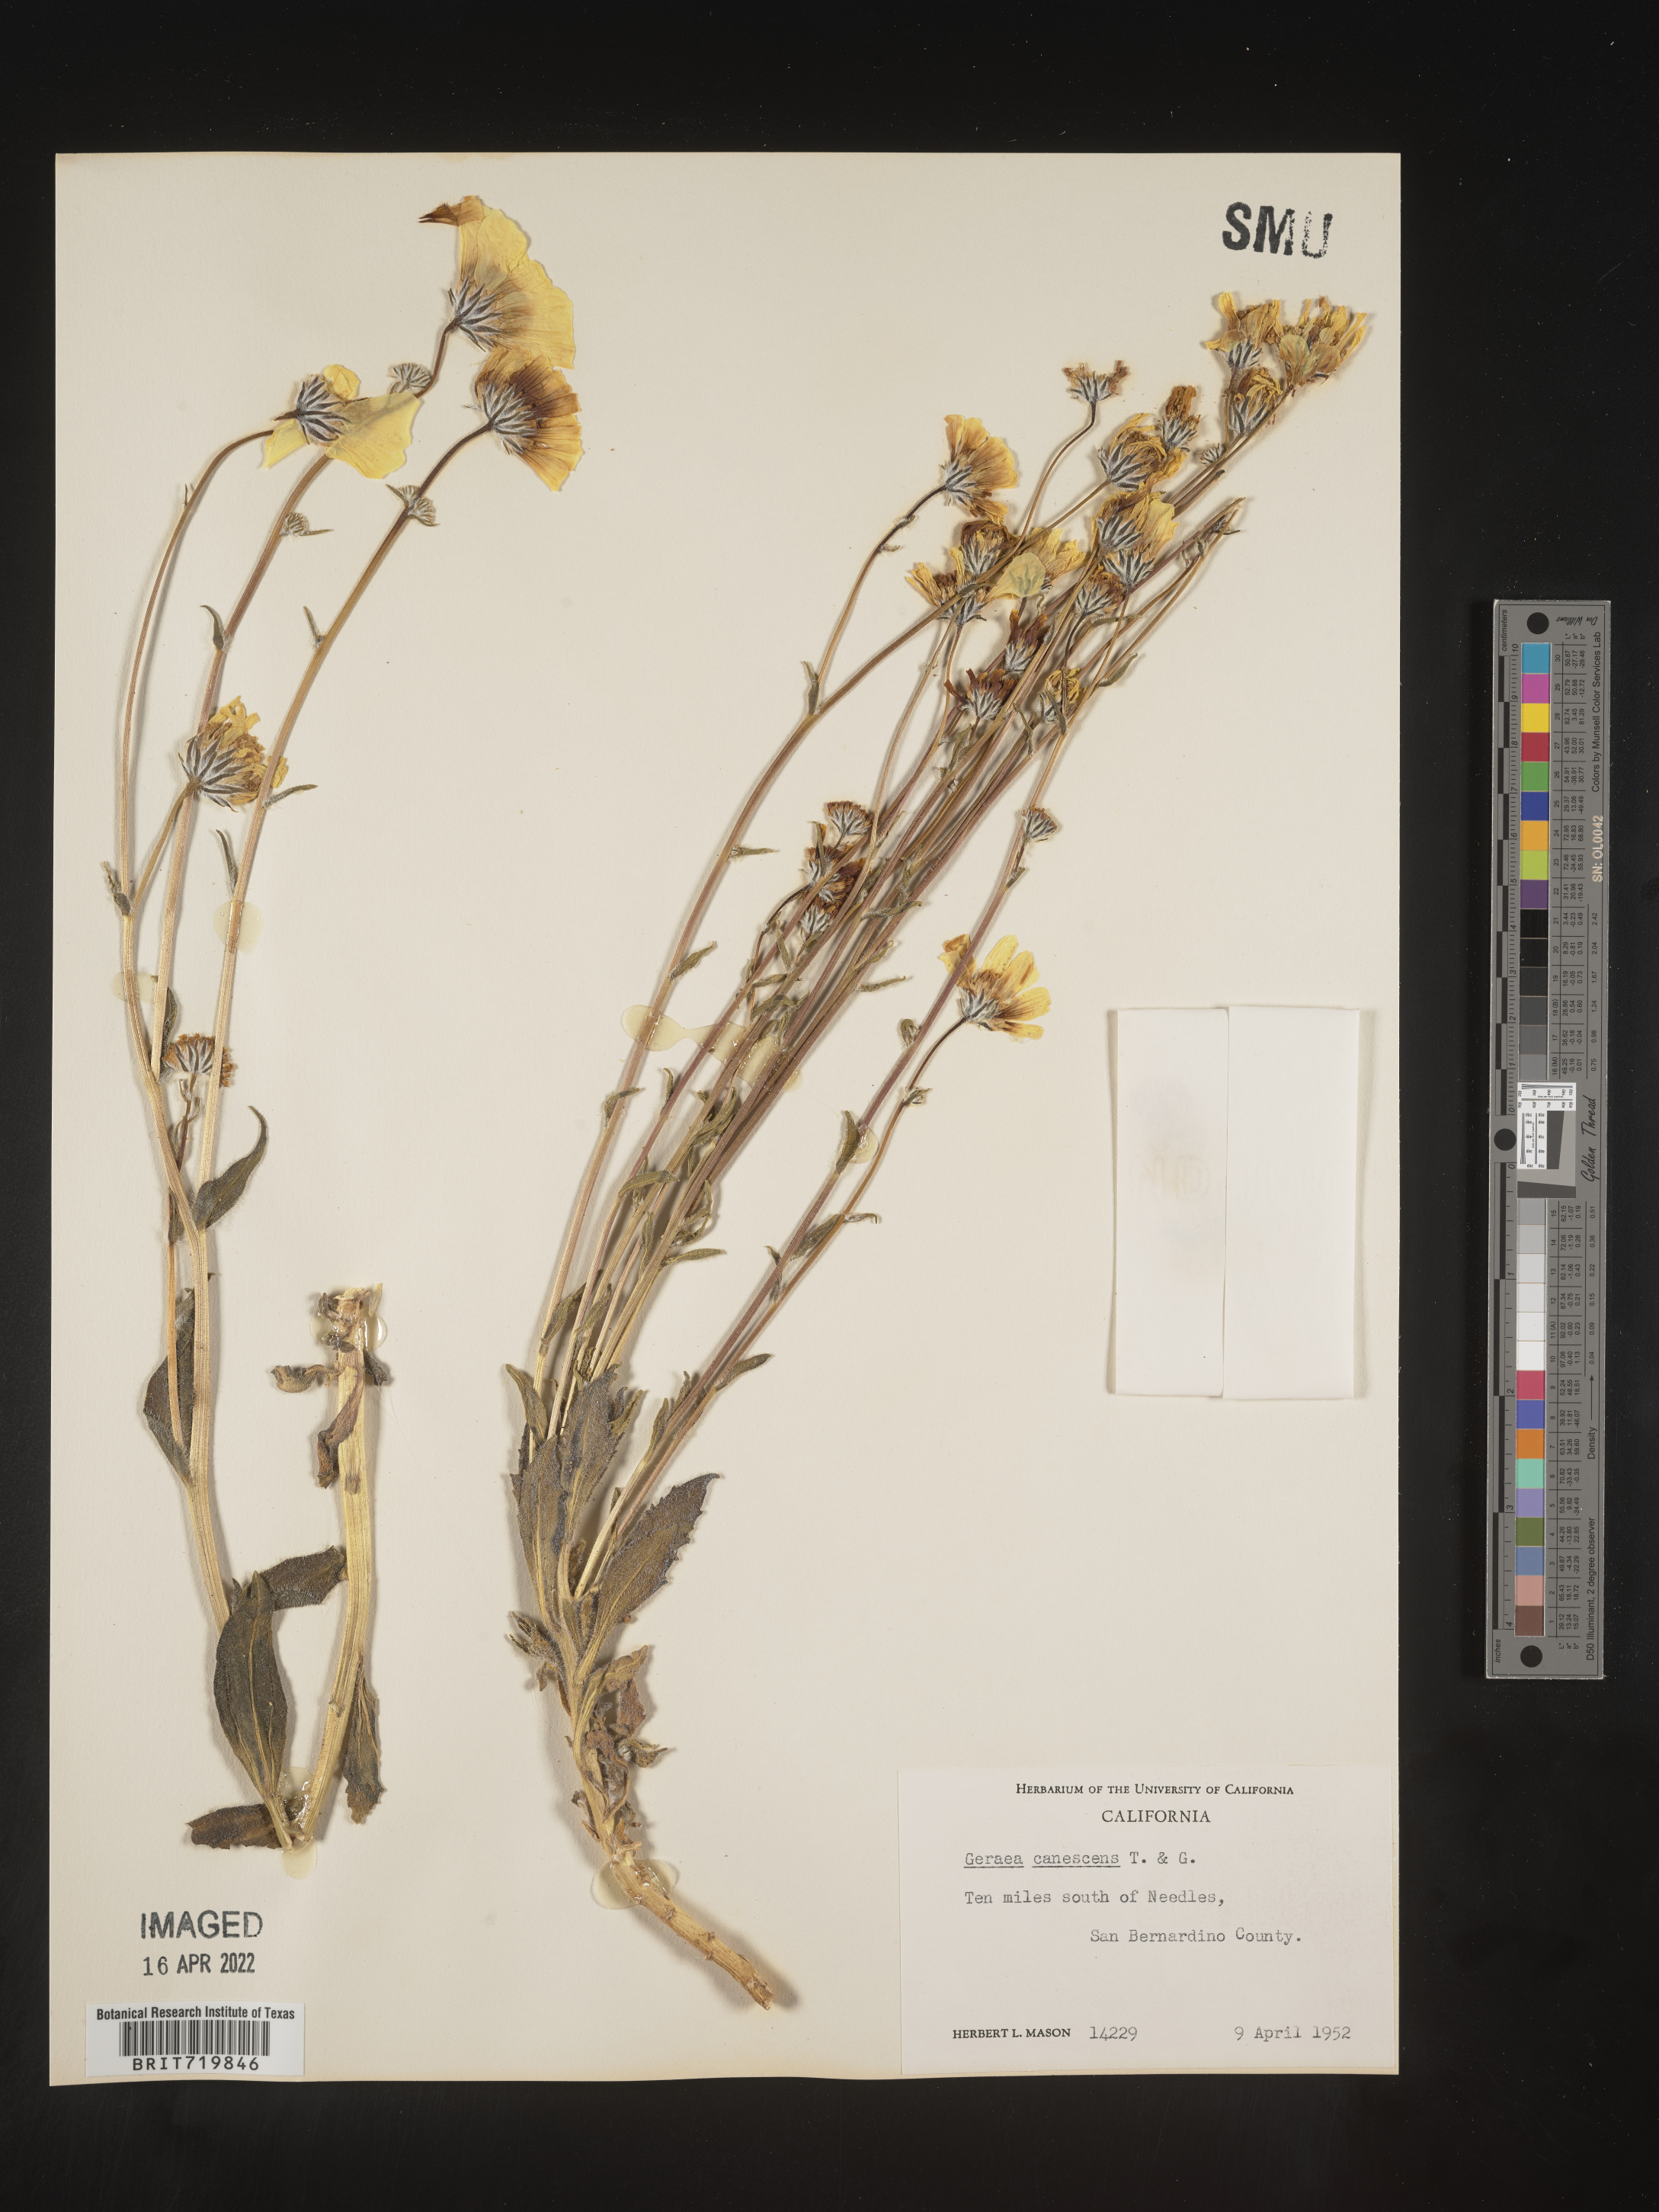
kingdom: Plantae
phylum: Tracheophyta
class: Magnoliopsida
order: Asterales
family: Asteraceae
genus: Geraea
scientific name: Geraea
